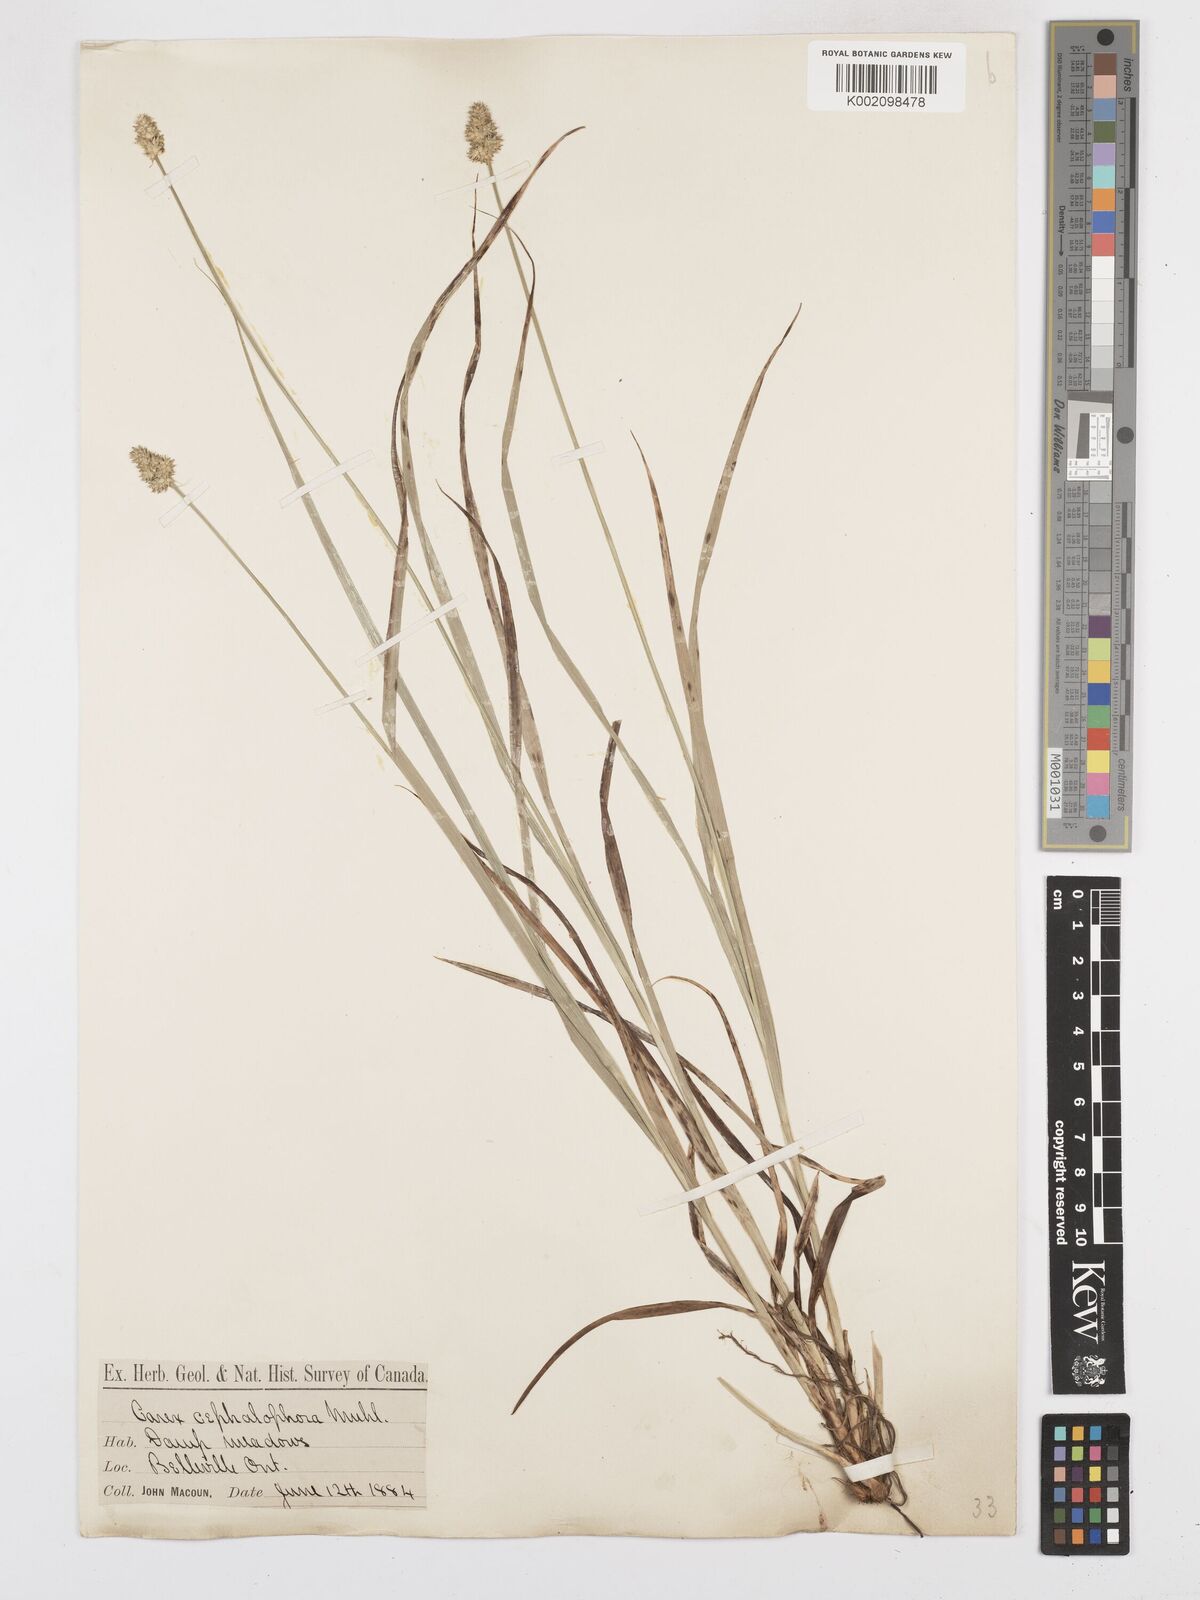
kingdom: Plantae
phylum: Tracheophyta
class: Liliopsida
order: Poales
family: Cyperaceae
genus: Carex
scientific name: Carex cephalophora
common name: Oval-headed sedge
